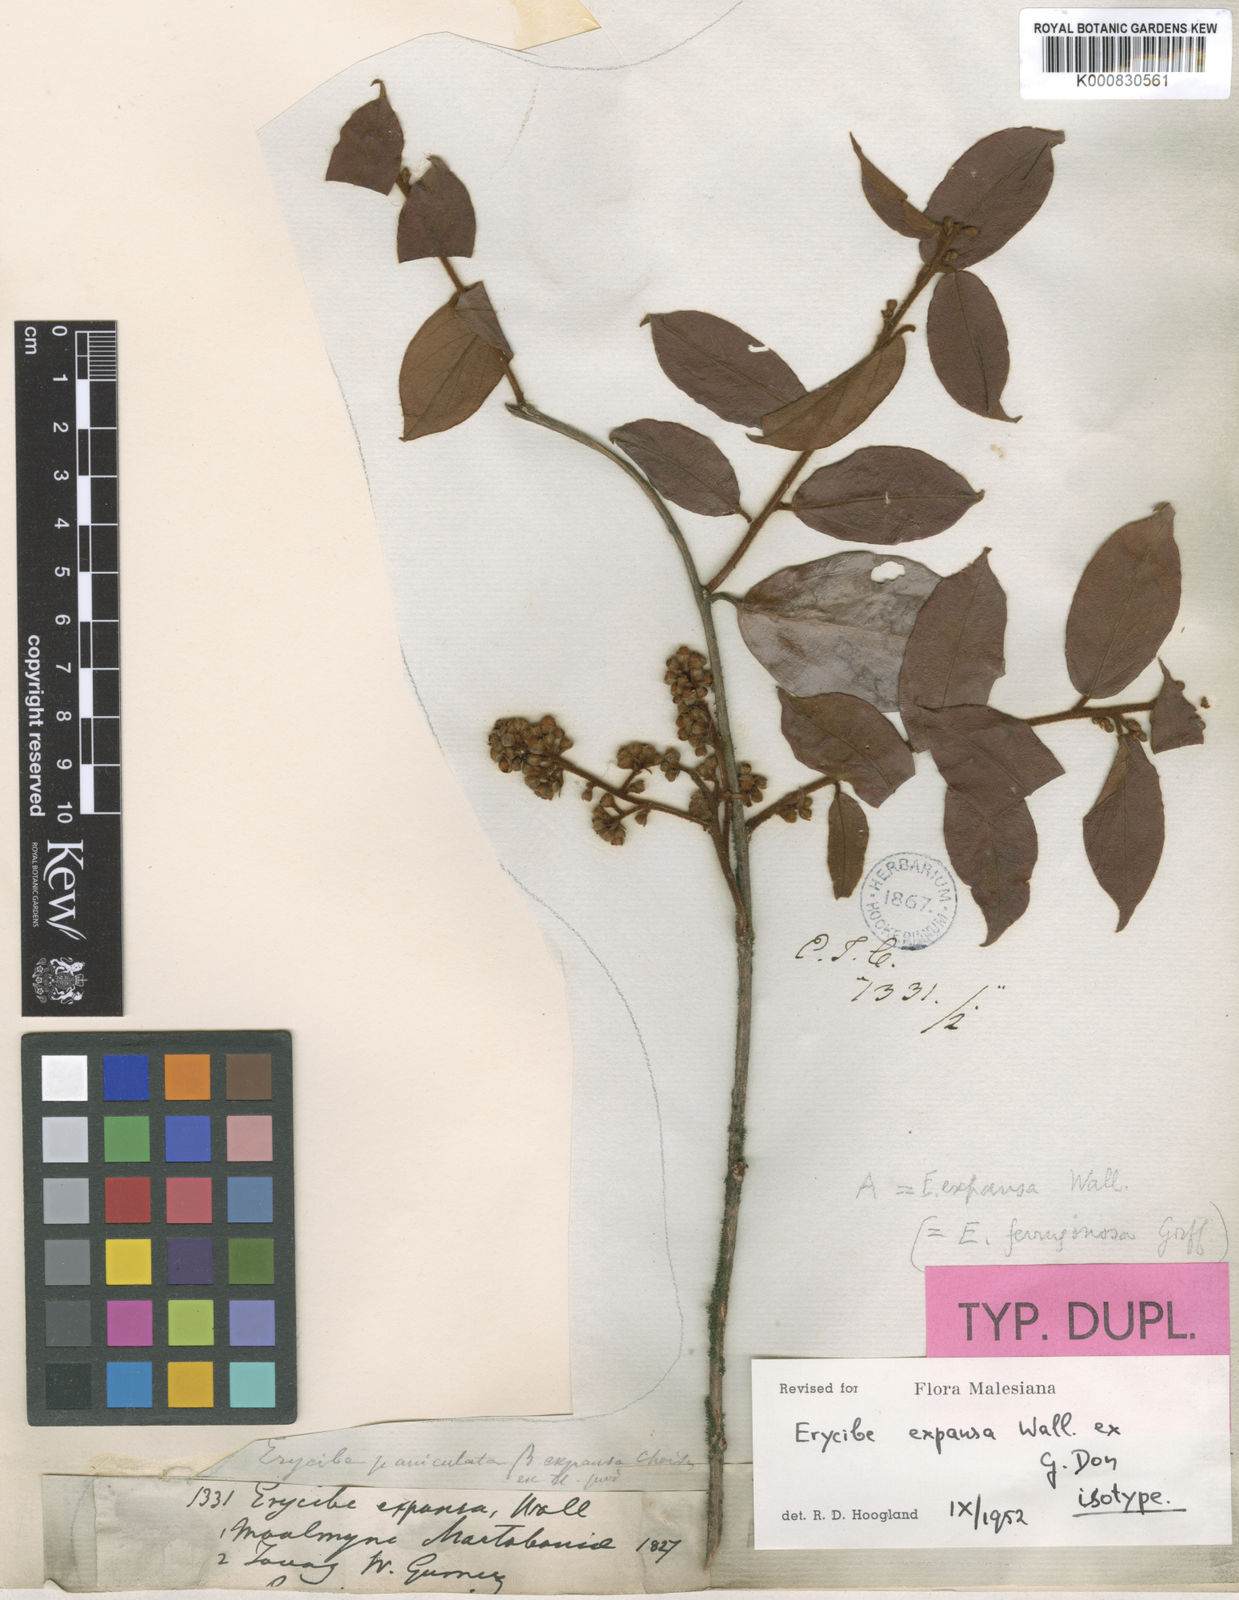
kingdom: Plantae
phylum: Tracheophyta
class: Magnoliopsida
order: Solanales
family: Convolvulaceae
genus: Erycibe
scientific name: Erycibe expansa
